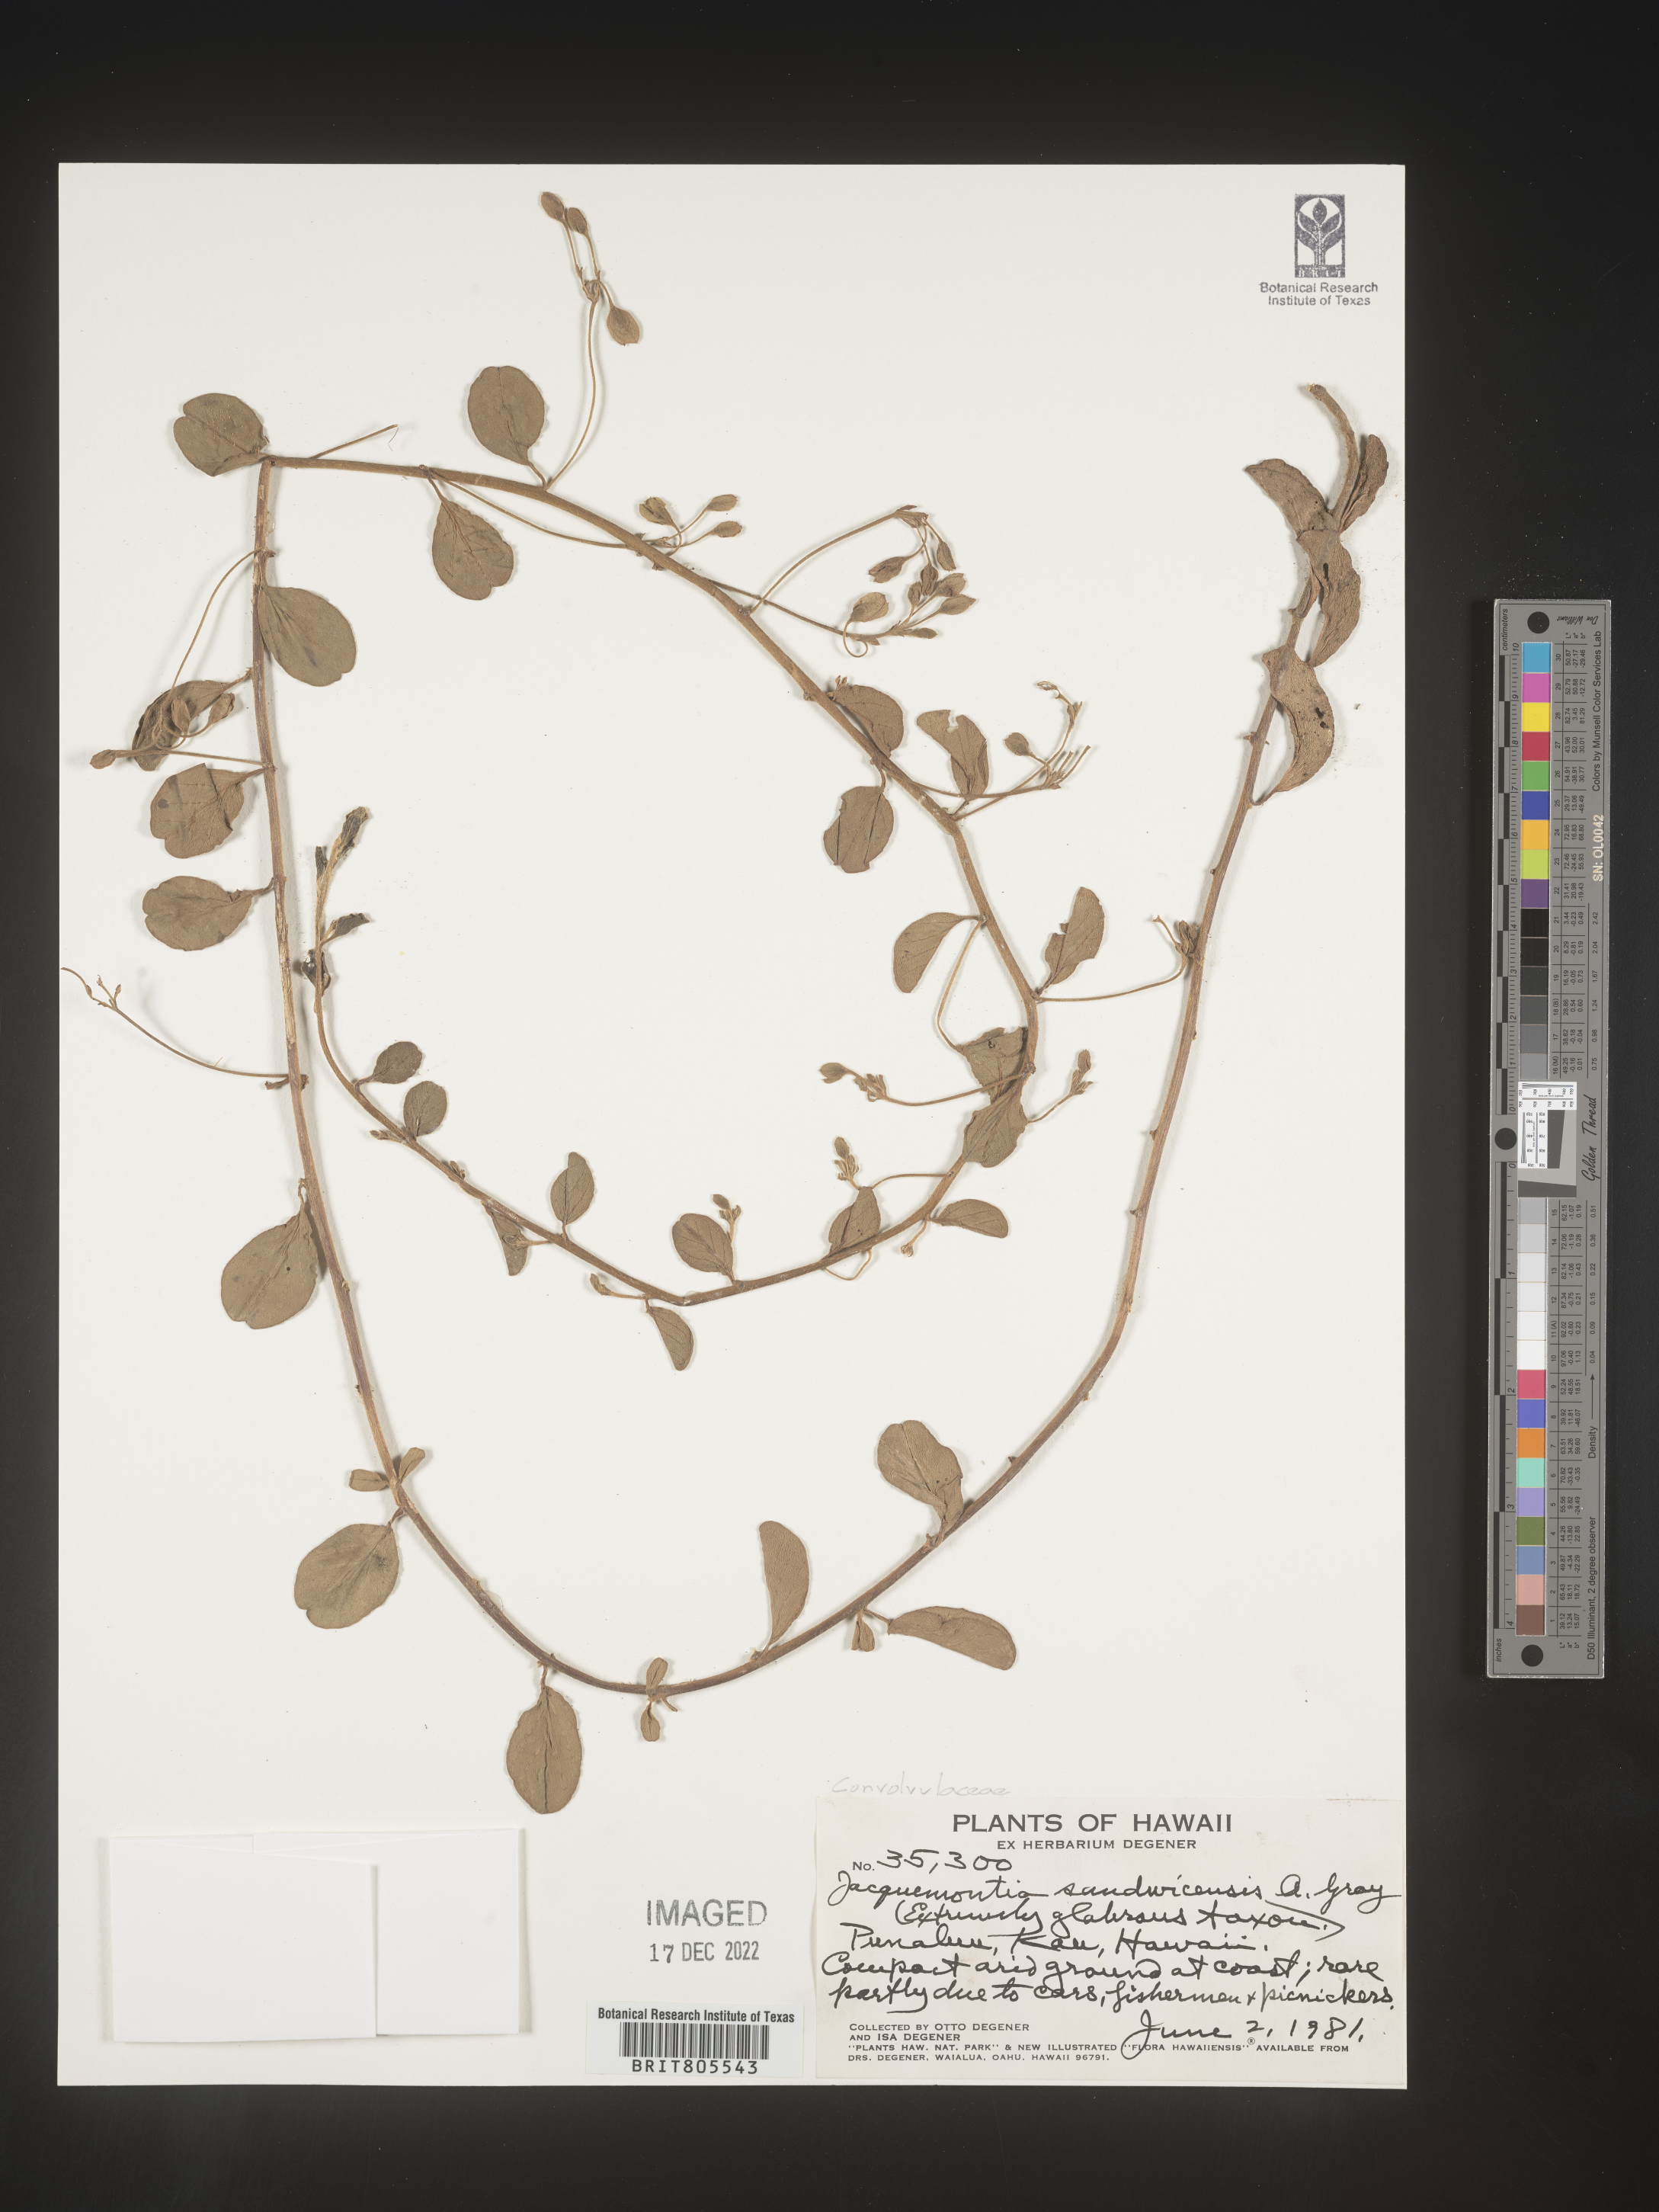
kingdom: Plantae
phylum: Tracheophyta
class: Magnoliopsida
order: Solanales
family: Convolvulaceae
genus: Jacquemontia
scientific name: Jacquemontia
